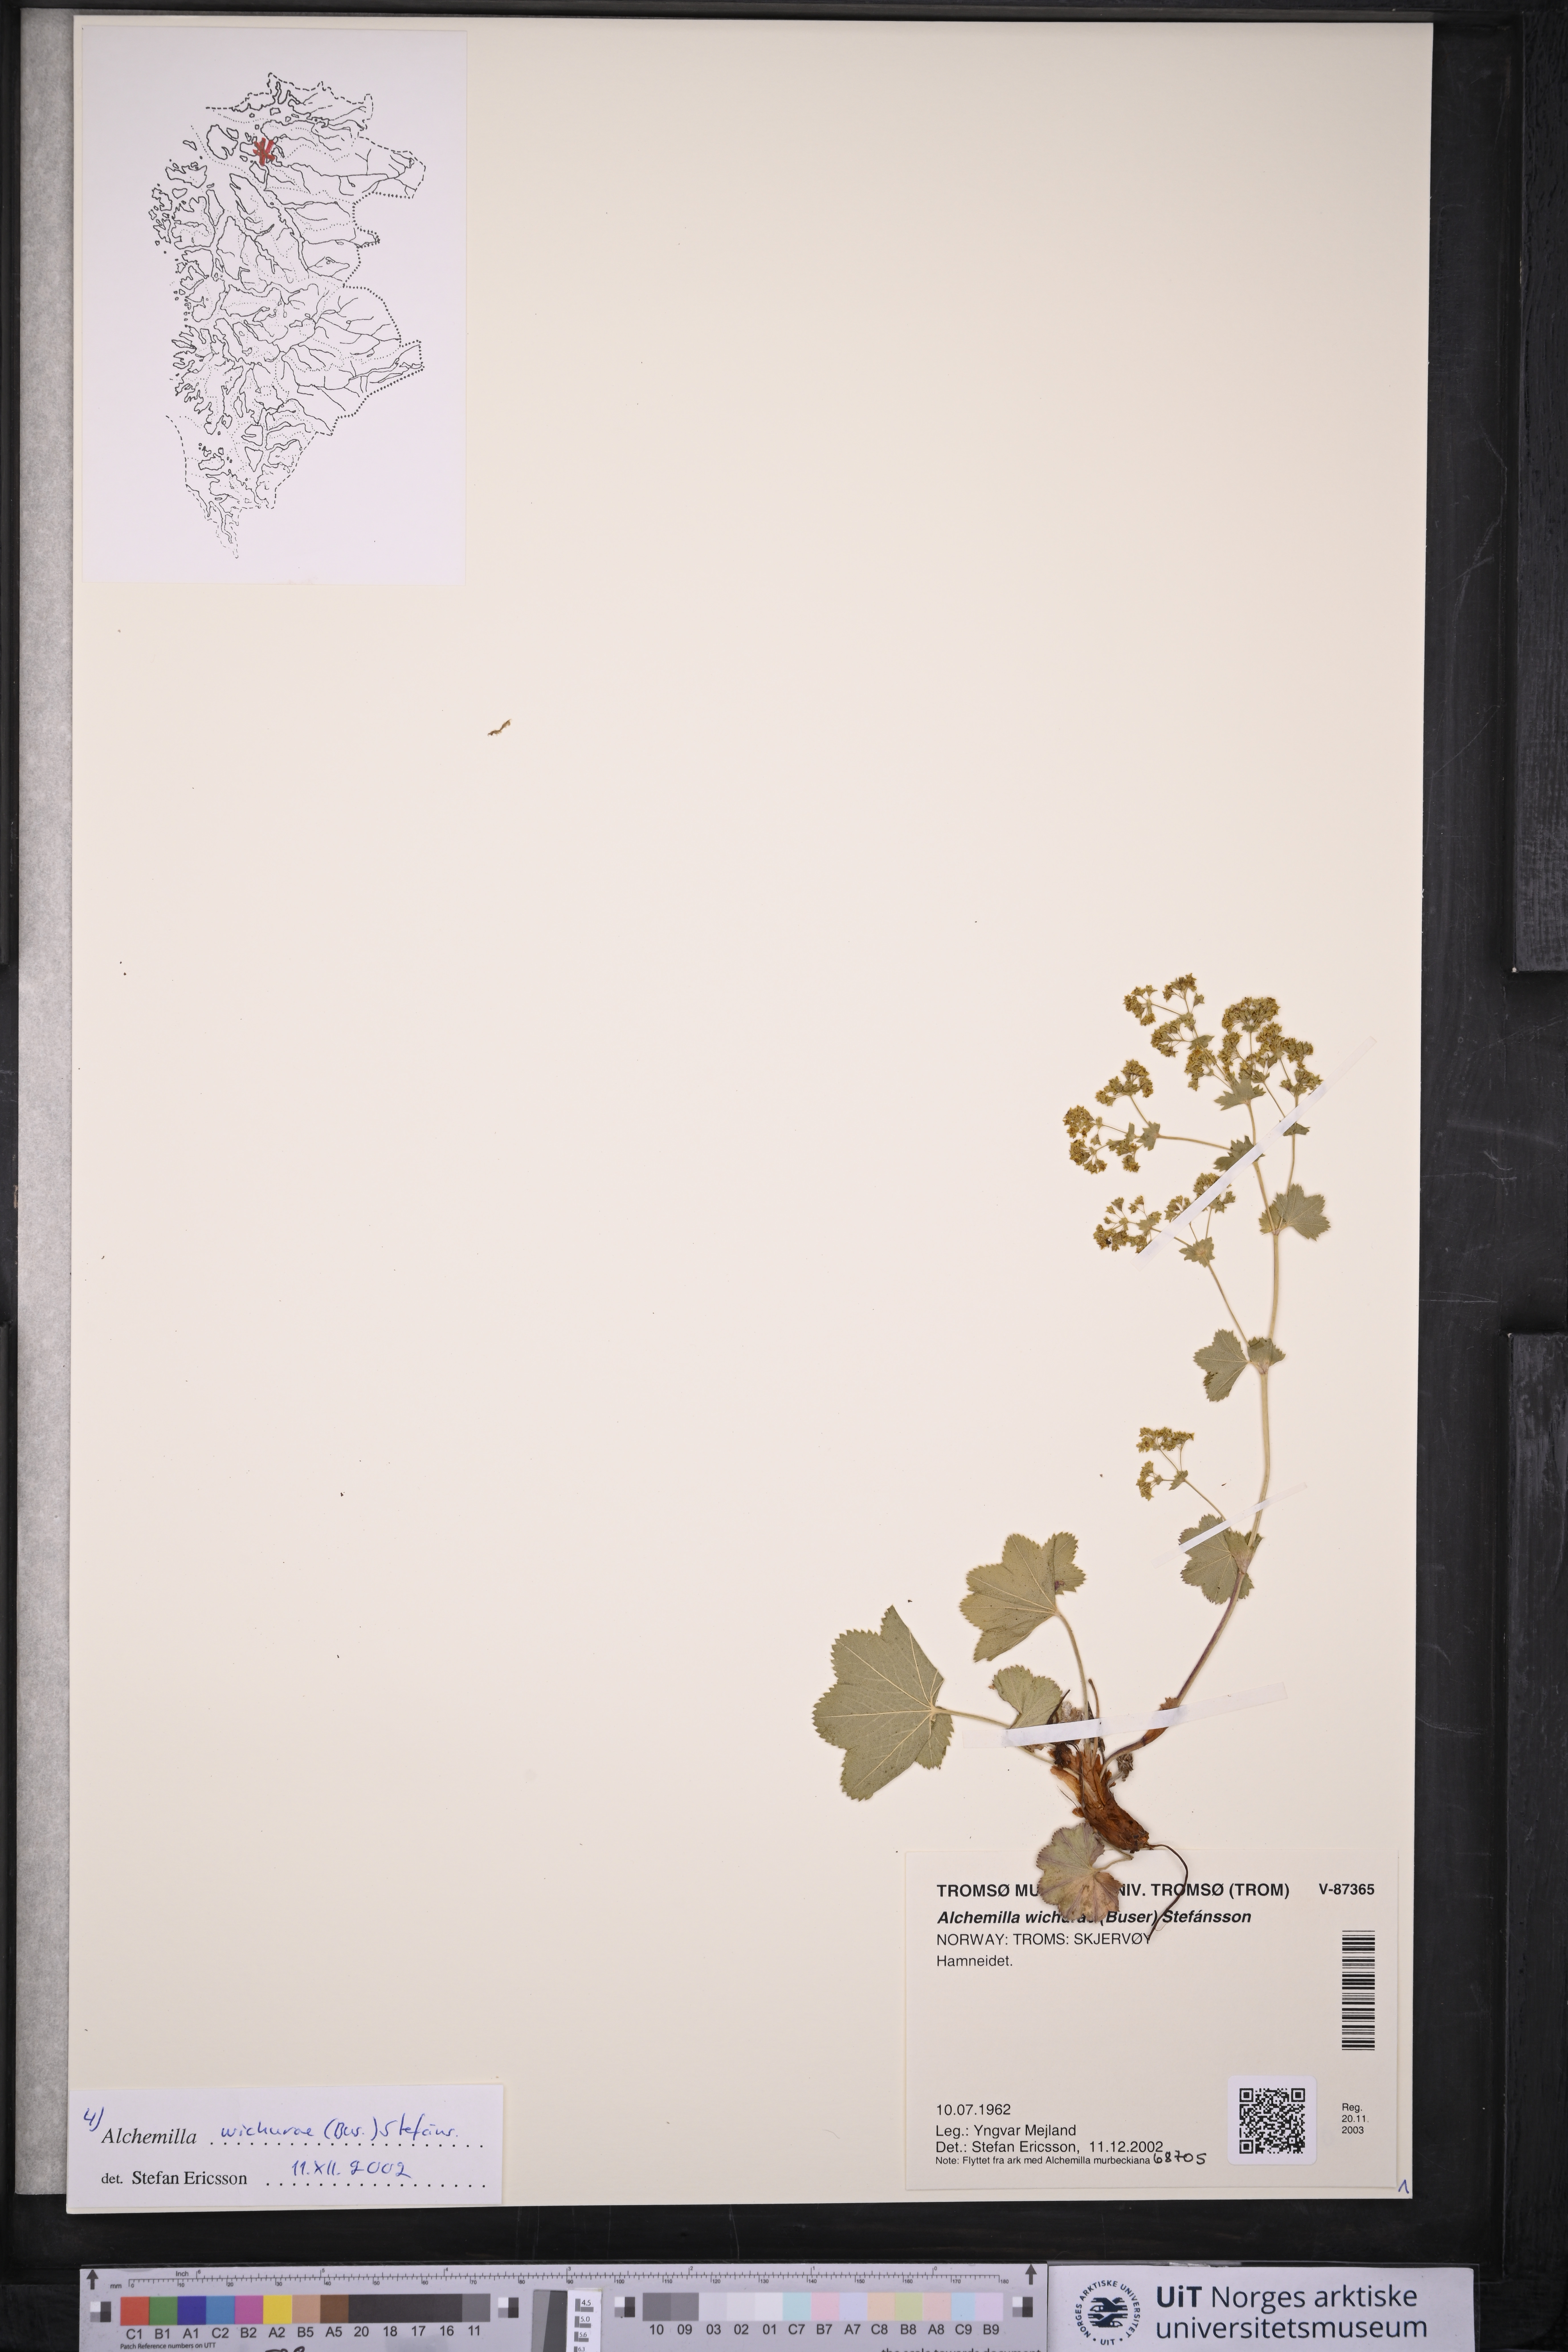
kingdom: Plantae
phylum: Tracheophyta
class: Magnoliopsida
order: Rosales
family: Rosaceae
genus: Alchemilla
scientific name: Alchemilla wichurae
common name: Rock lady's mantle
